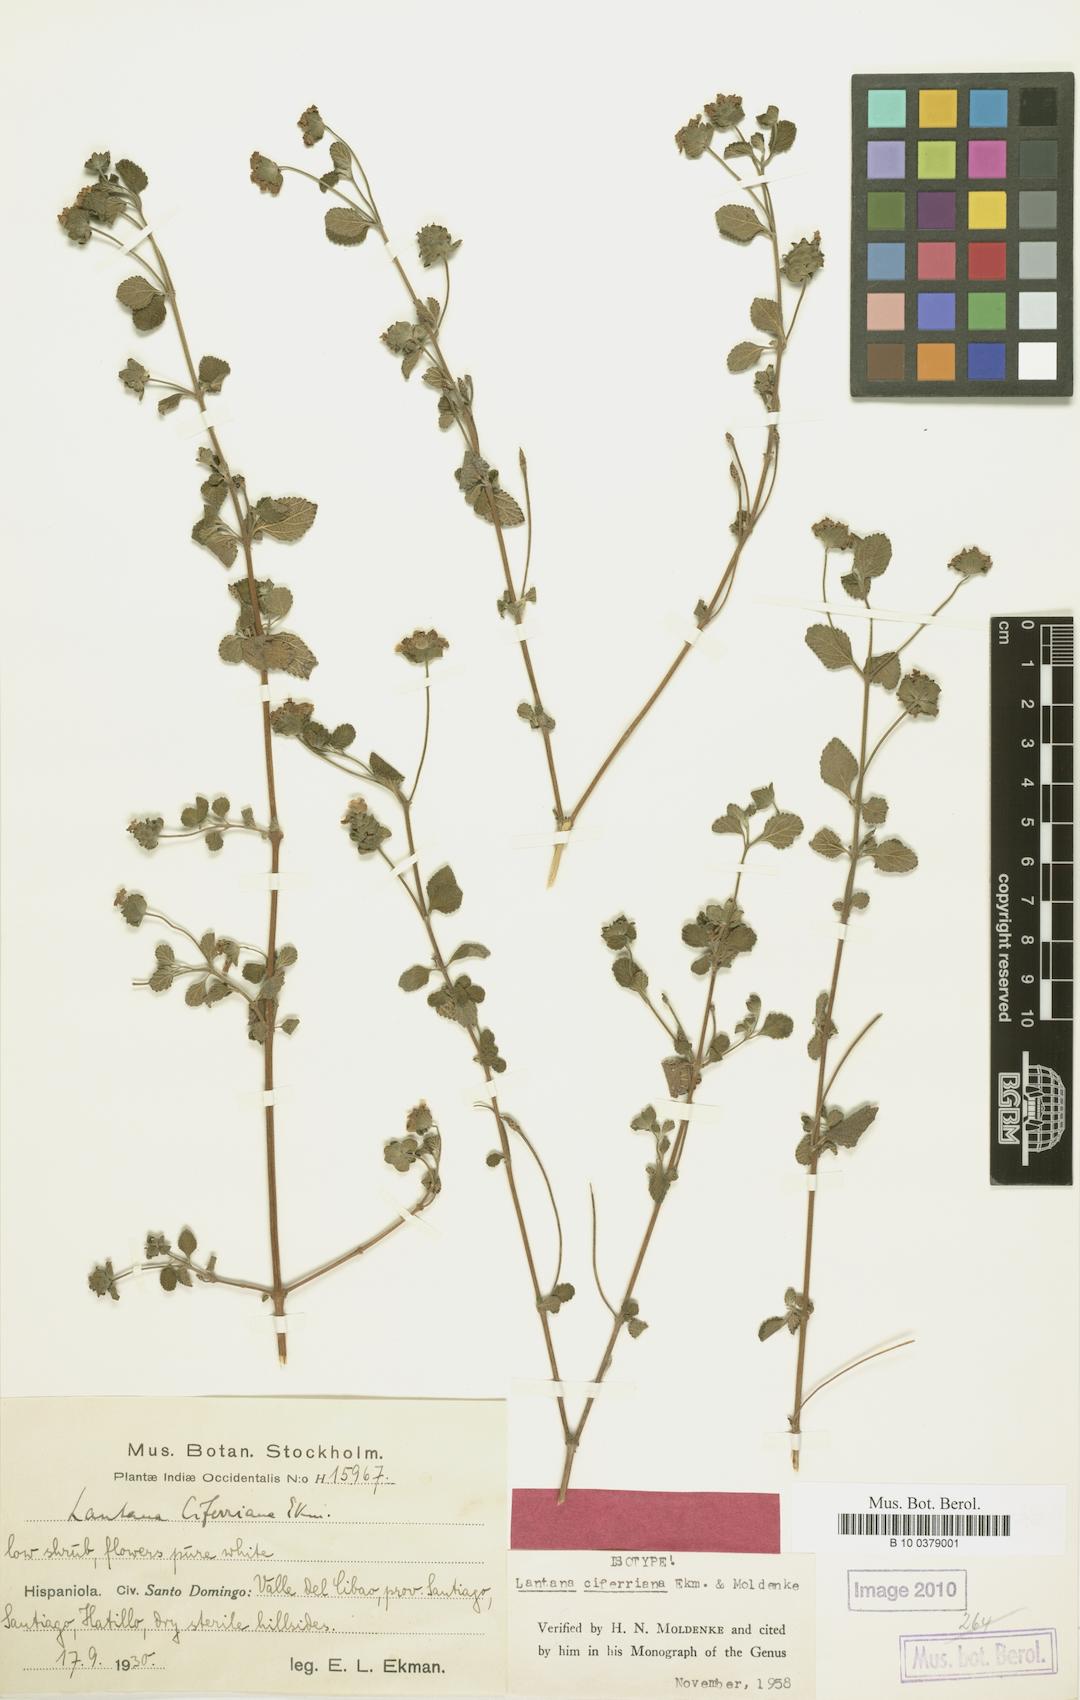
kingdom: Plantae
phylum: Tracheophyta
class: Magnoliopsida
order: Lamiales
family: Verbenaceae
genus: Lantana
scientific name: Lantana
